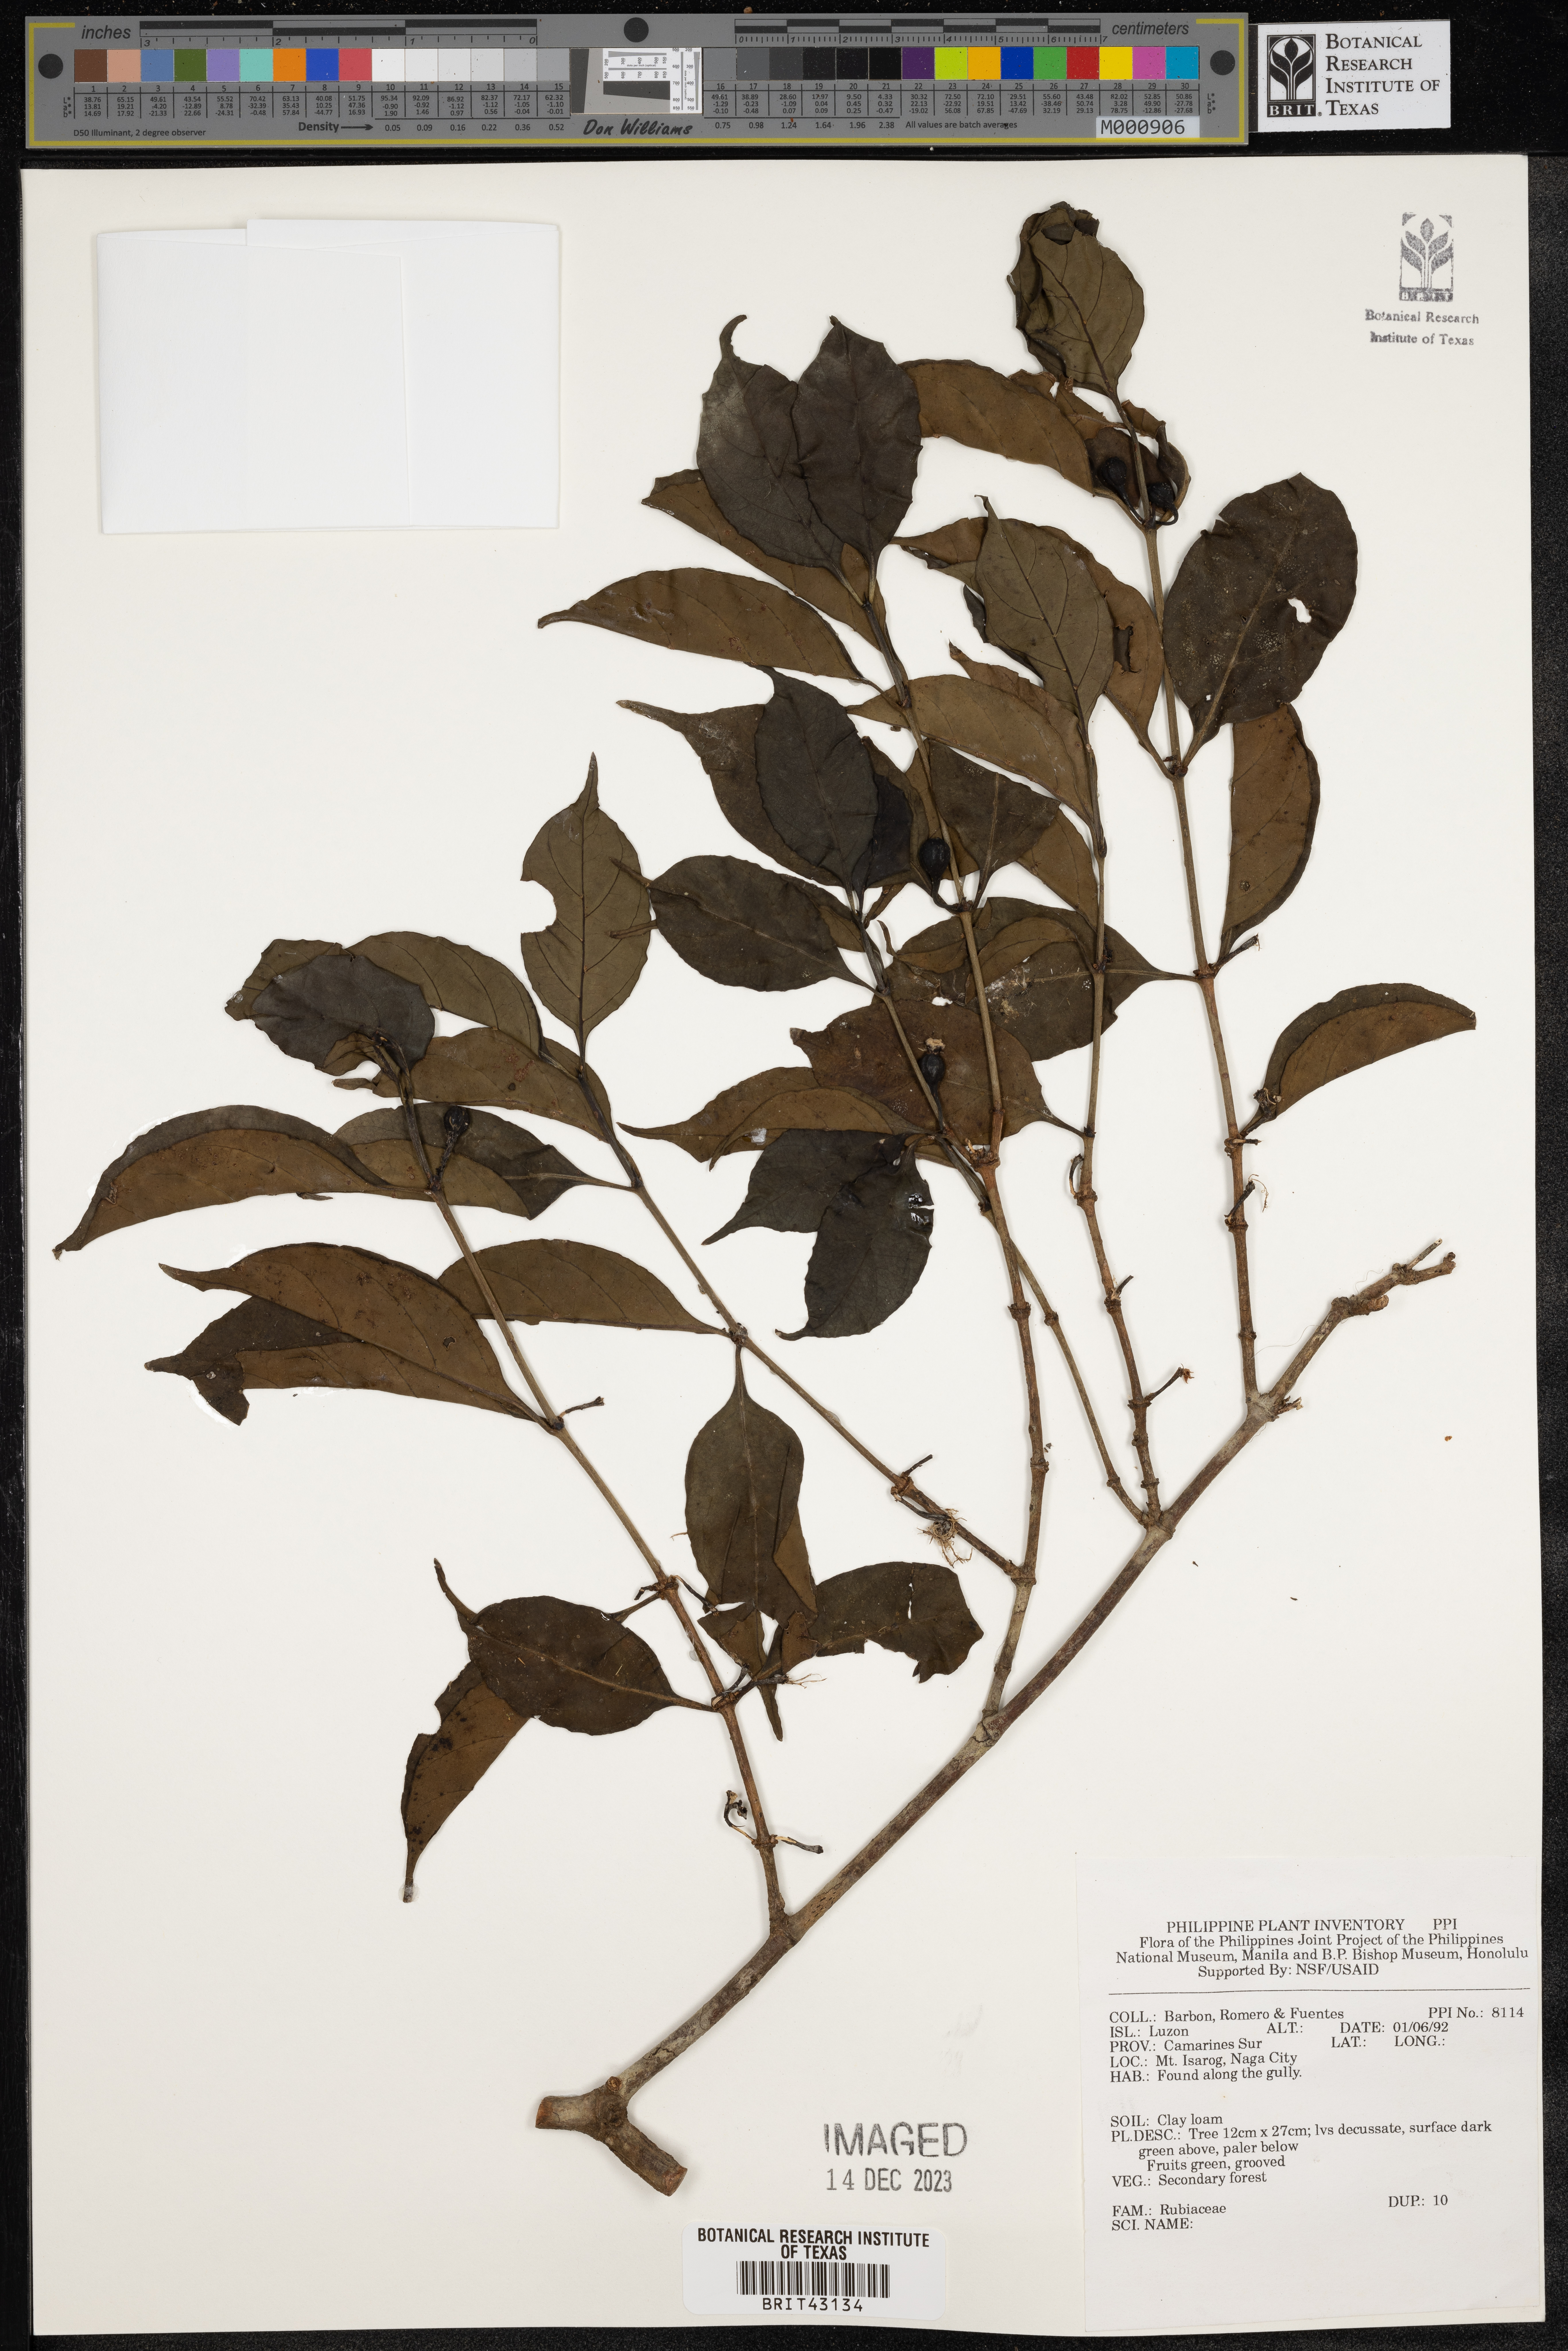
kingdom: Plantae
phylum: Tracheophyta
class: Magnoliopsida
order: Gentianales
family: Rubiaceae
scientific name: Rubiaceae
